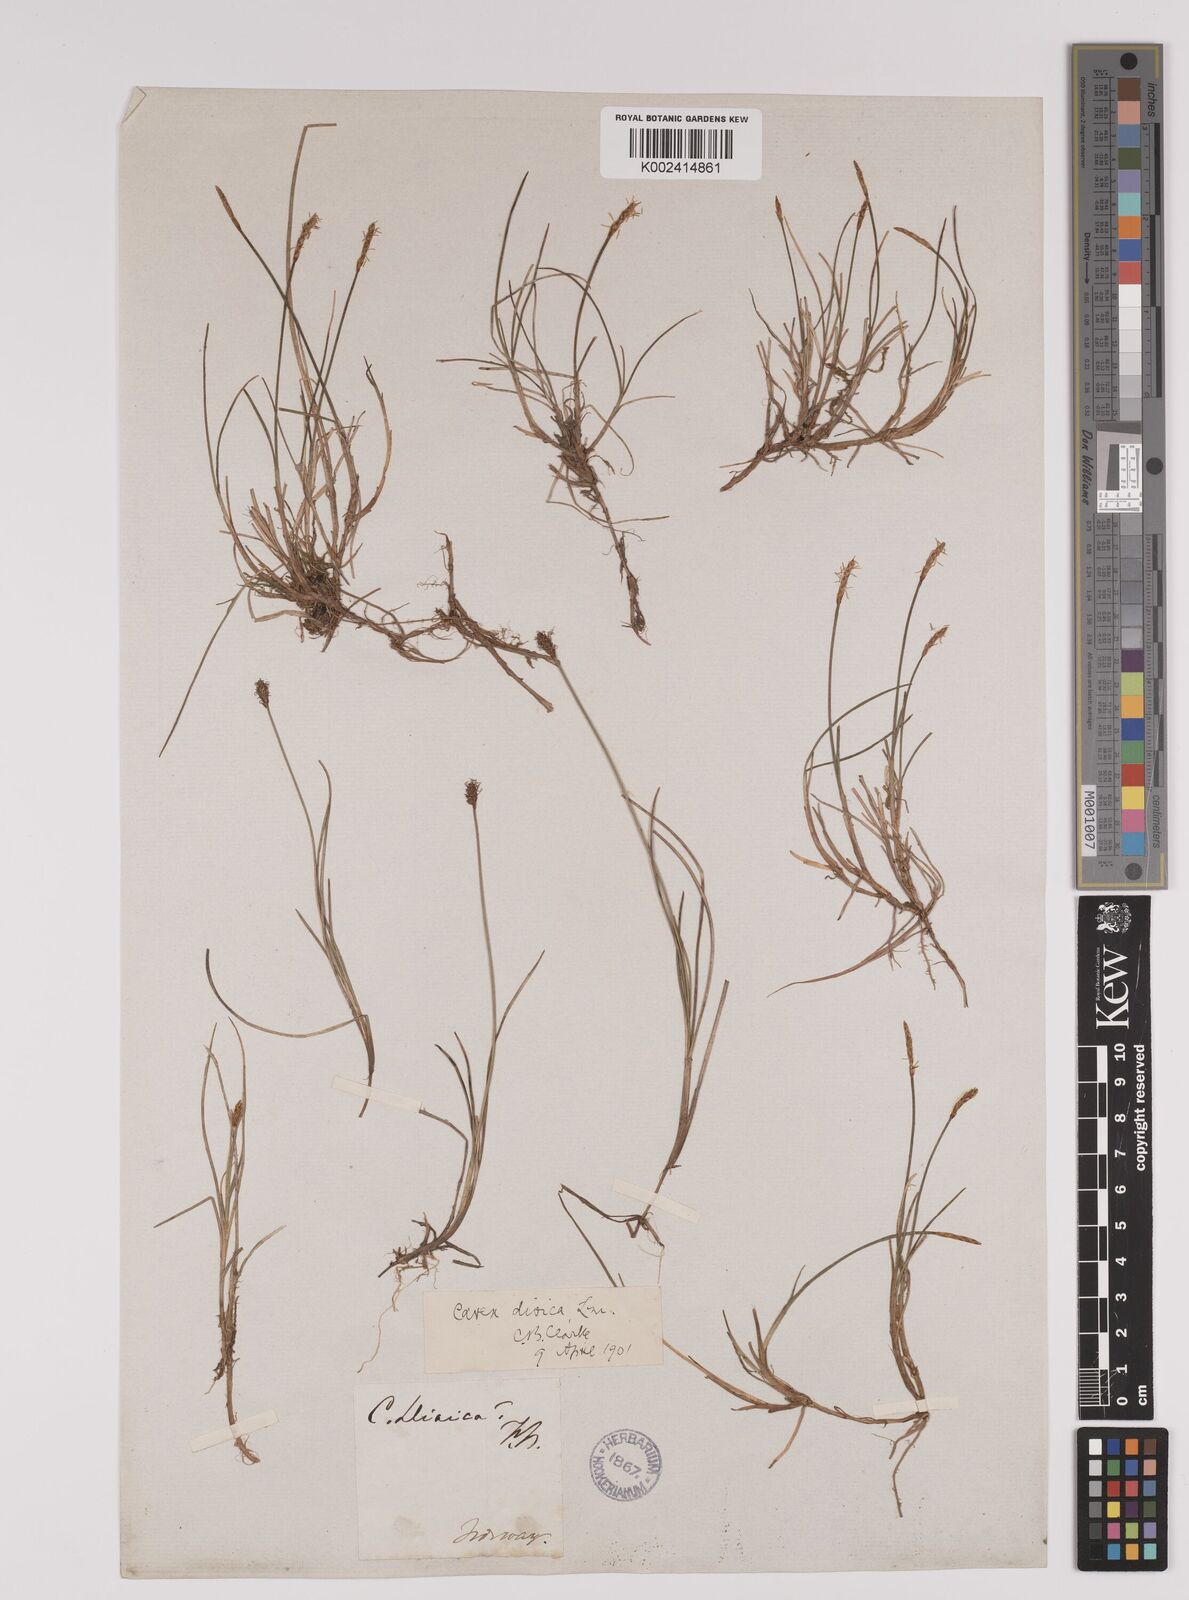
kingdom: Plantae
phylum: Tracheophyta
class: Liliopsida
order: Poales
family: Cyperaceae
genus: Carex
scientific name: Carex dioica
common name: Dioecious sedge
